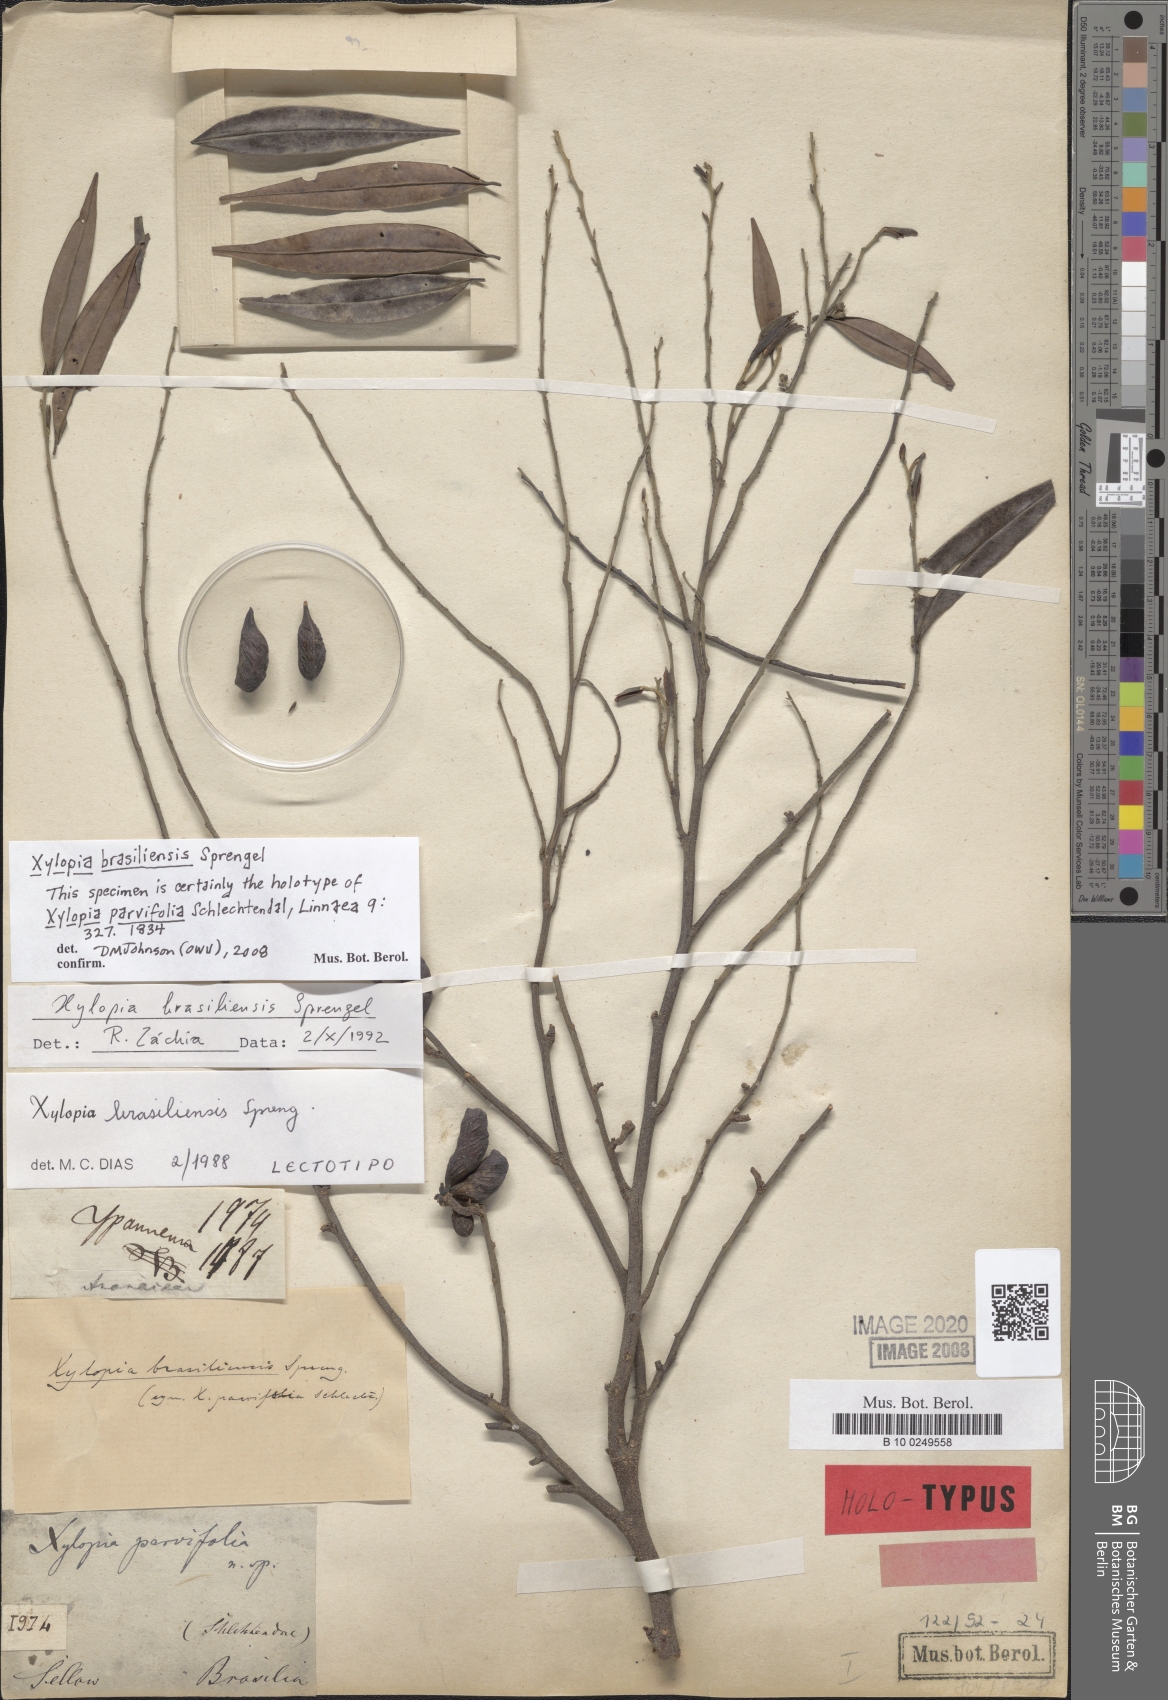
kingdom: Plantae
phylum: Tracheophyta
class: Magnoliopsida
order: Magnoliales
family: Annonaceae
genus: Xylopia
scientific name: Xylopia brasiliensis
